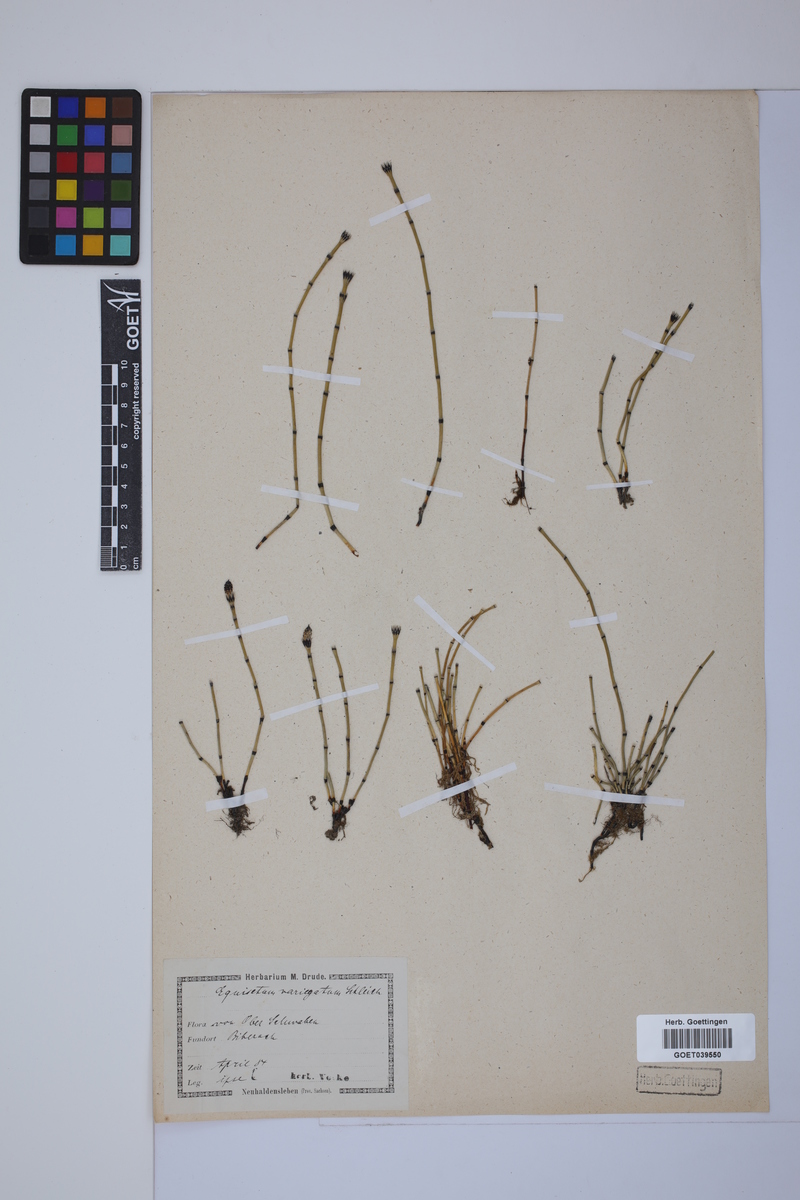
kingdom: Plantae
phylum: Tracheophyta
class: Polypodiopsida
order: Equisetales
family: Equisetaceae
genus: Equisetum
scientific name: Equisetum variegatum
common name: Variegated horsetail
